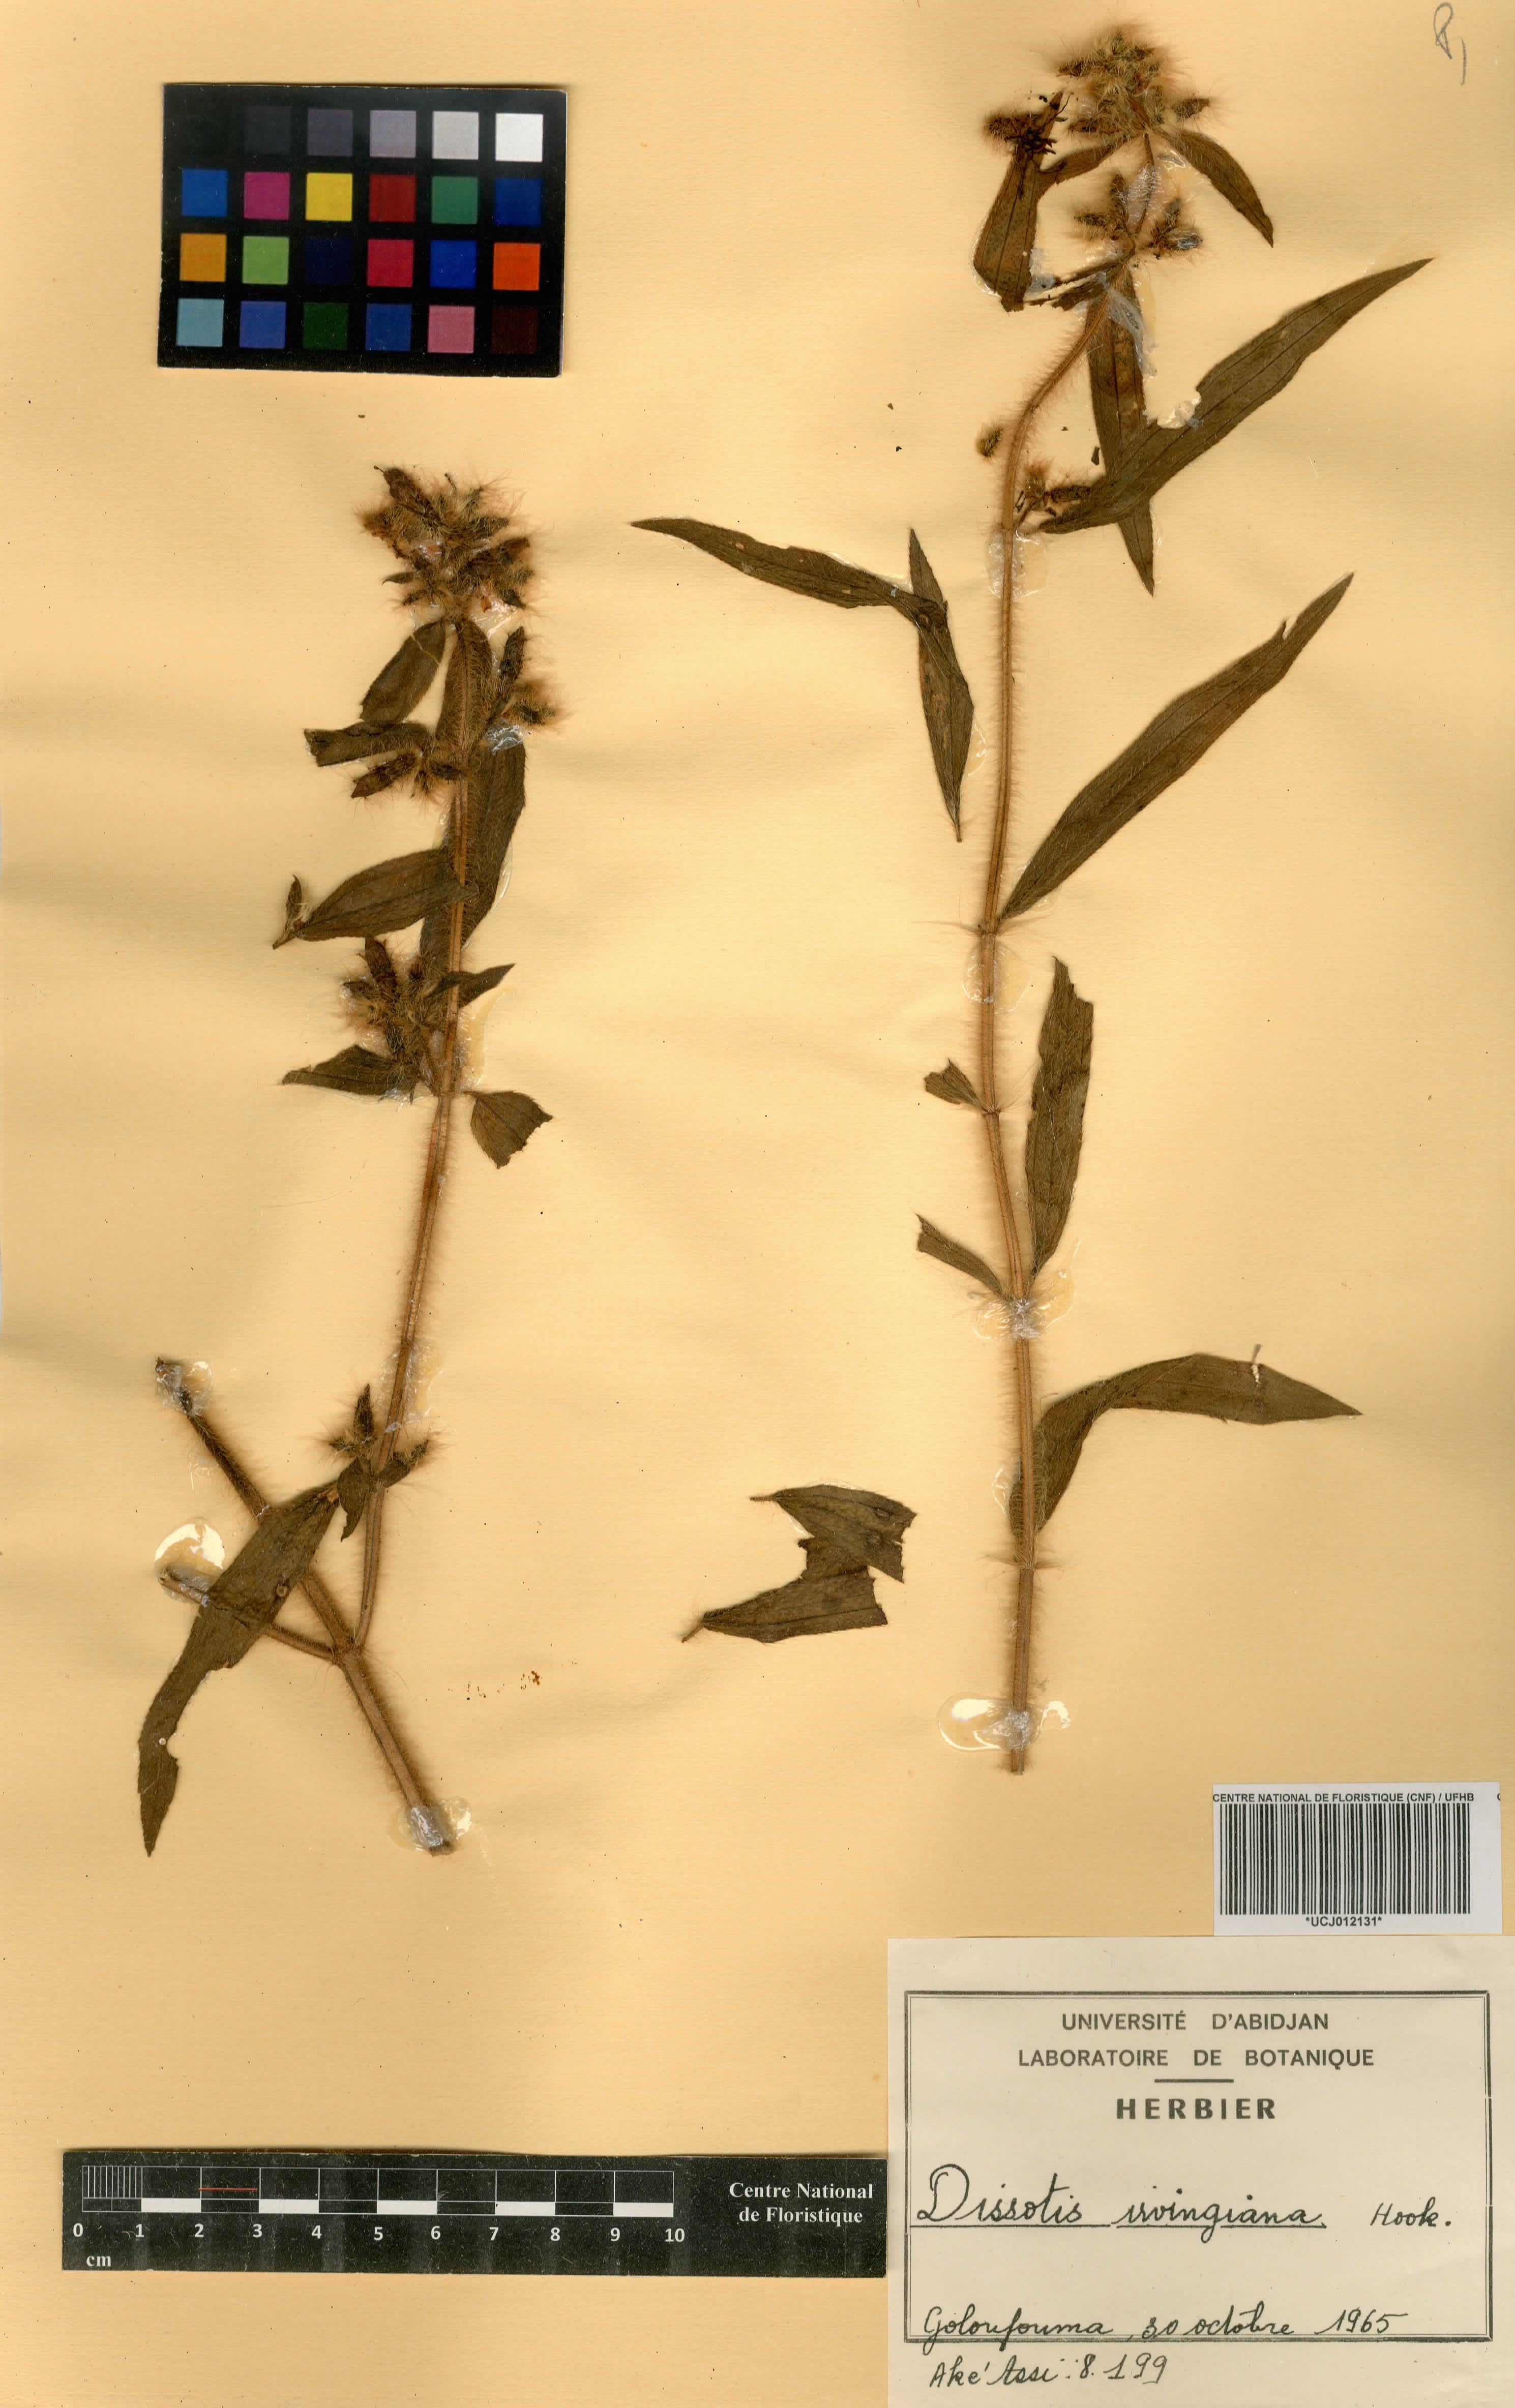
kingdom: Plantae
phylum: Tracheophyta
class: Magnoliopsida
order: Myrtales
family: Melastomataceae
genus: Antherotoma
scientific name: Antherotoma irvingiana
